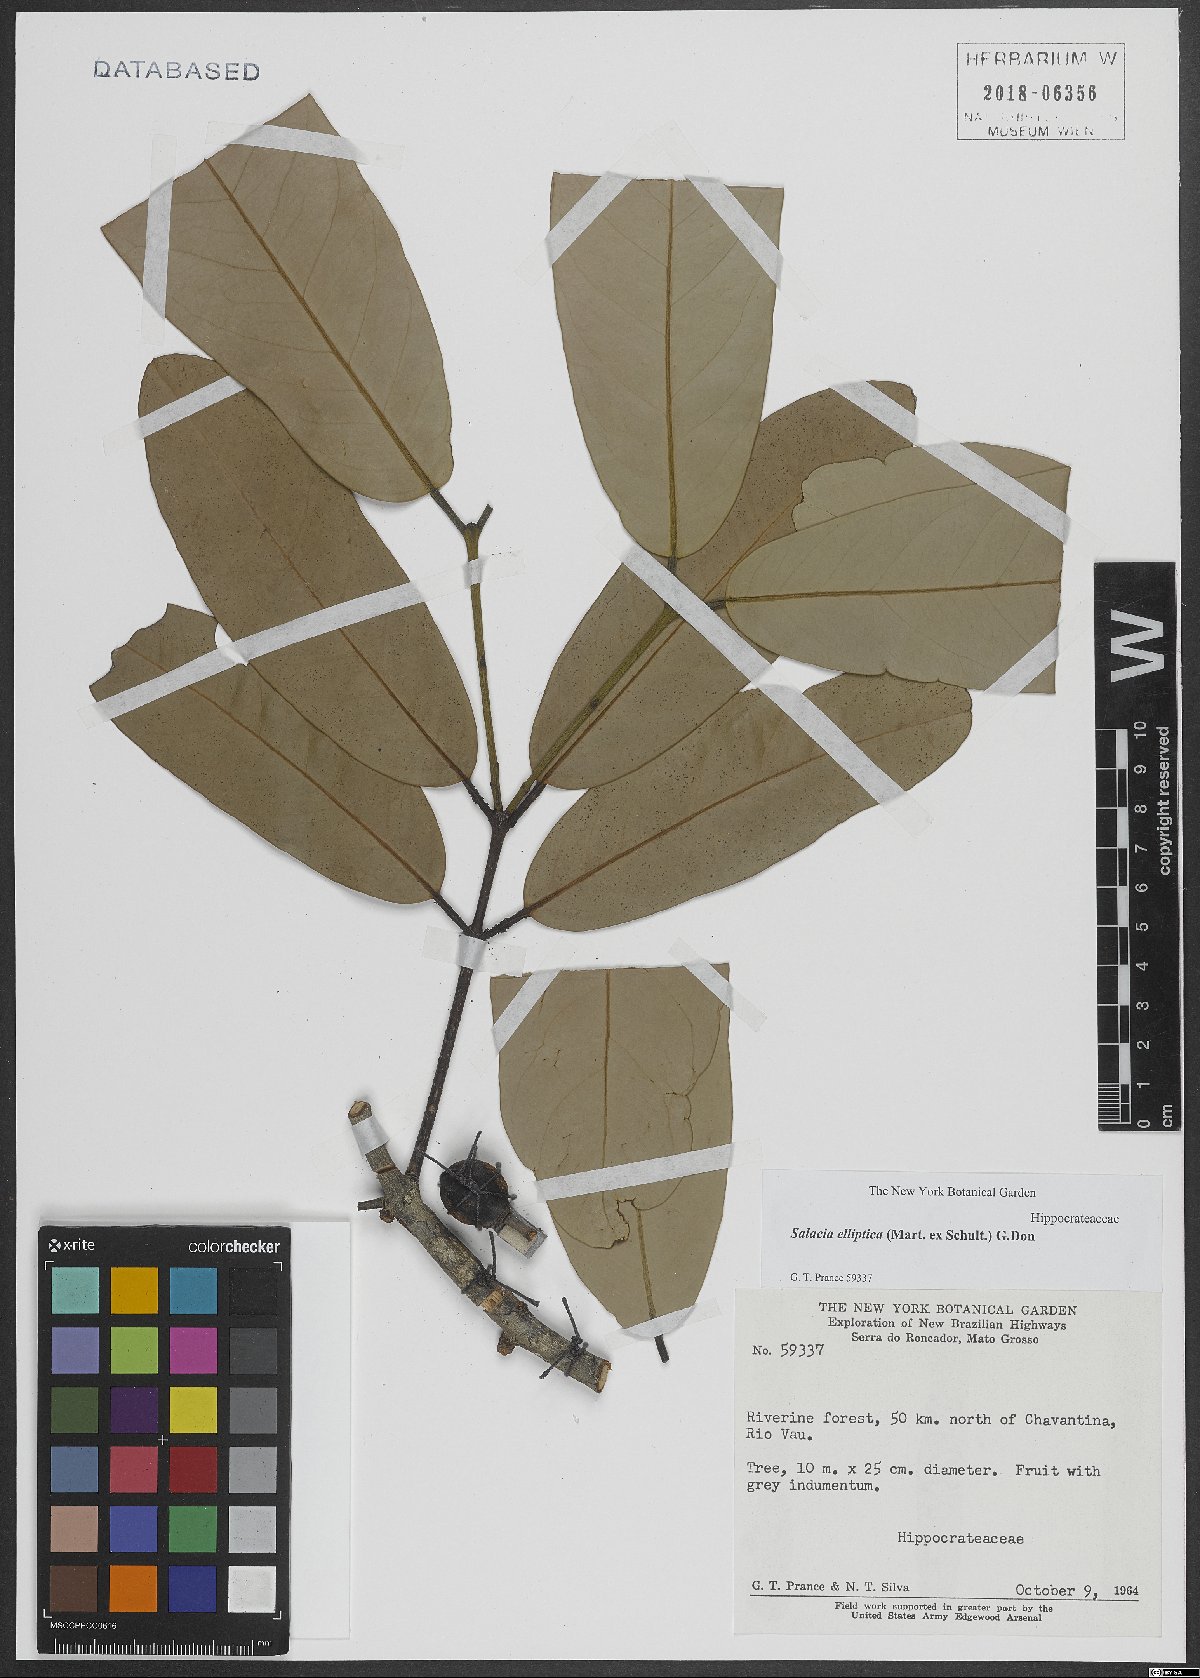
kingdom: Plantae
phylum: Tracheophyta
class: Magnoliopsida
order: Celastrales
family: Celastraceae
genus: Salacia
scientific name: Salacia elliptica
